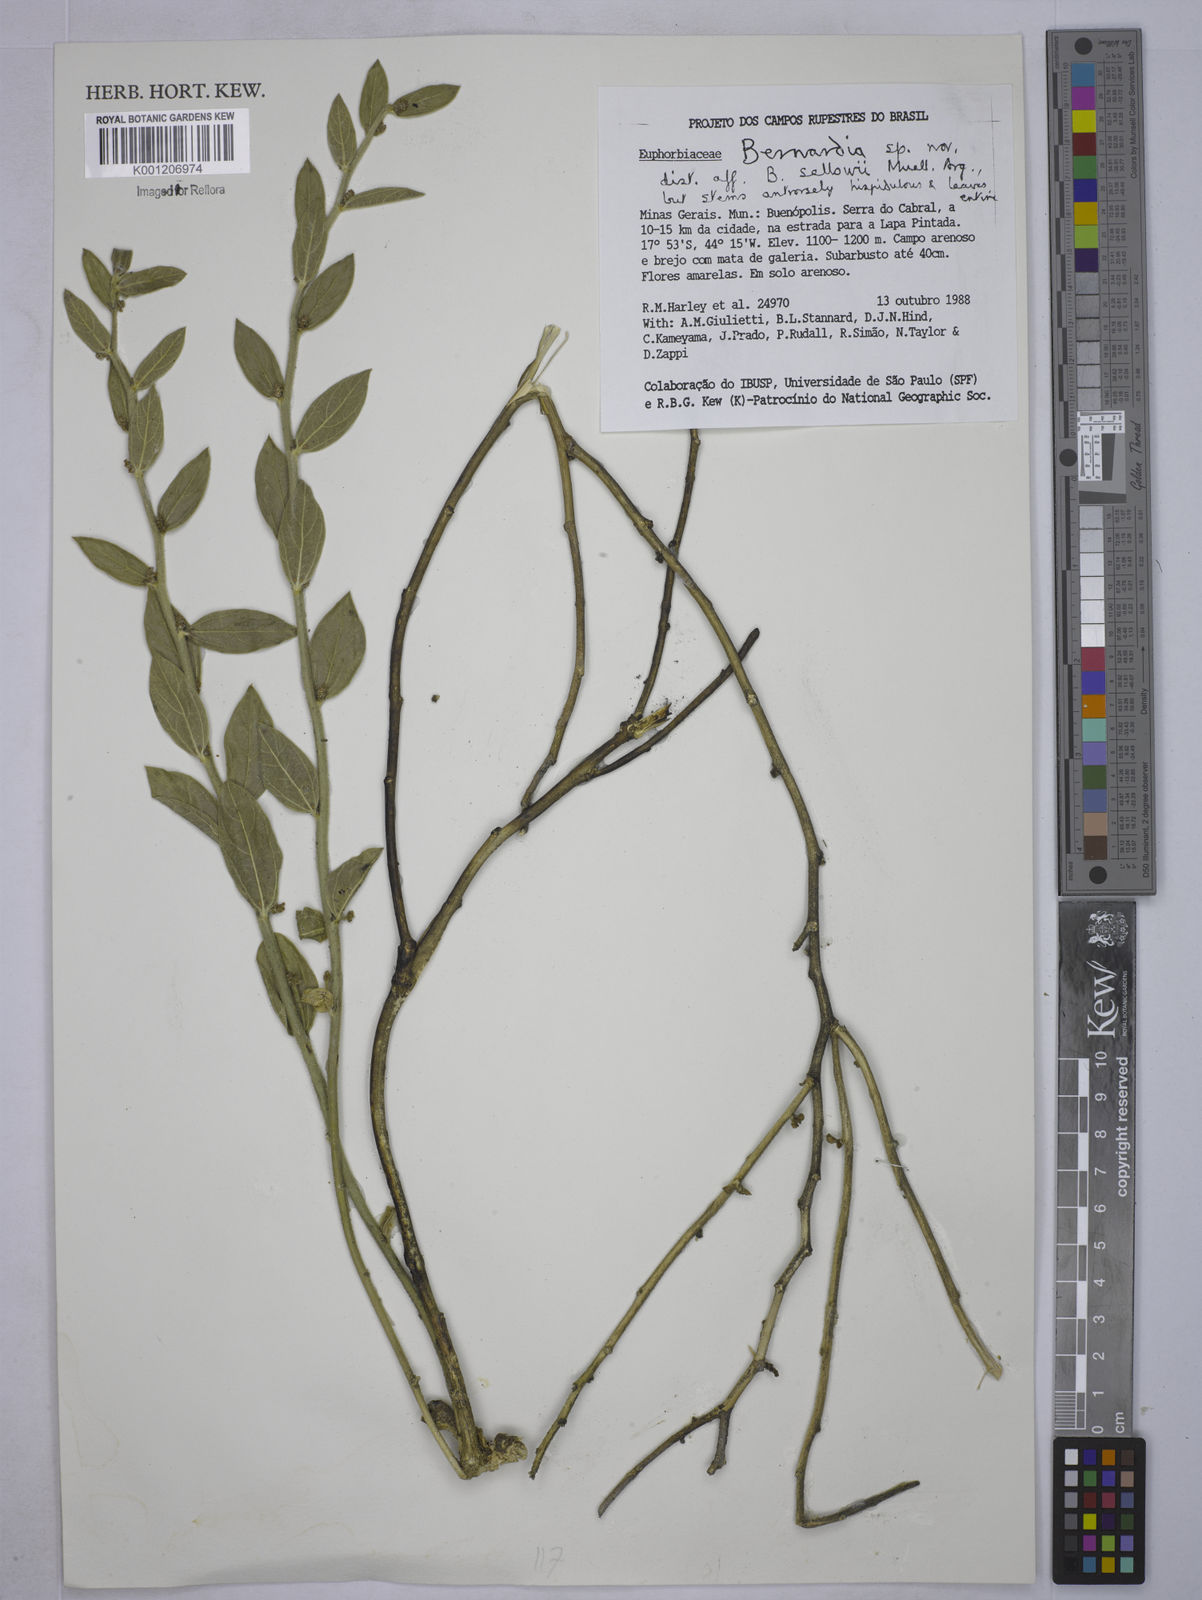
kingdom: Plantae
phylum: Tracheophyta
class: Magnoliopsida
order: Malpighiales
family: Euphorbiaceae
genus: Bernardia
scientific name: Bernardia
